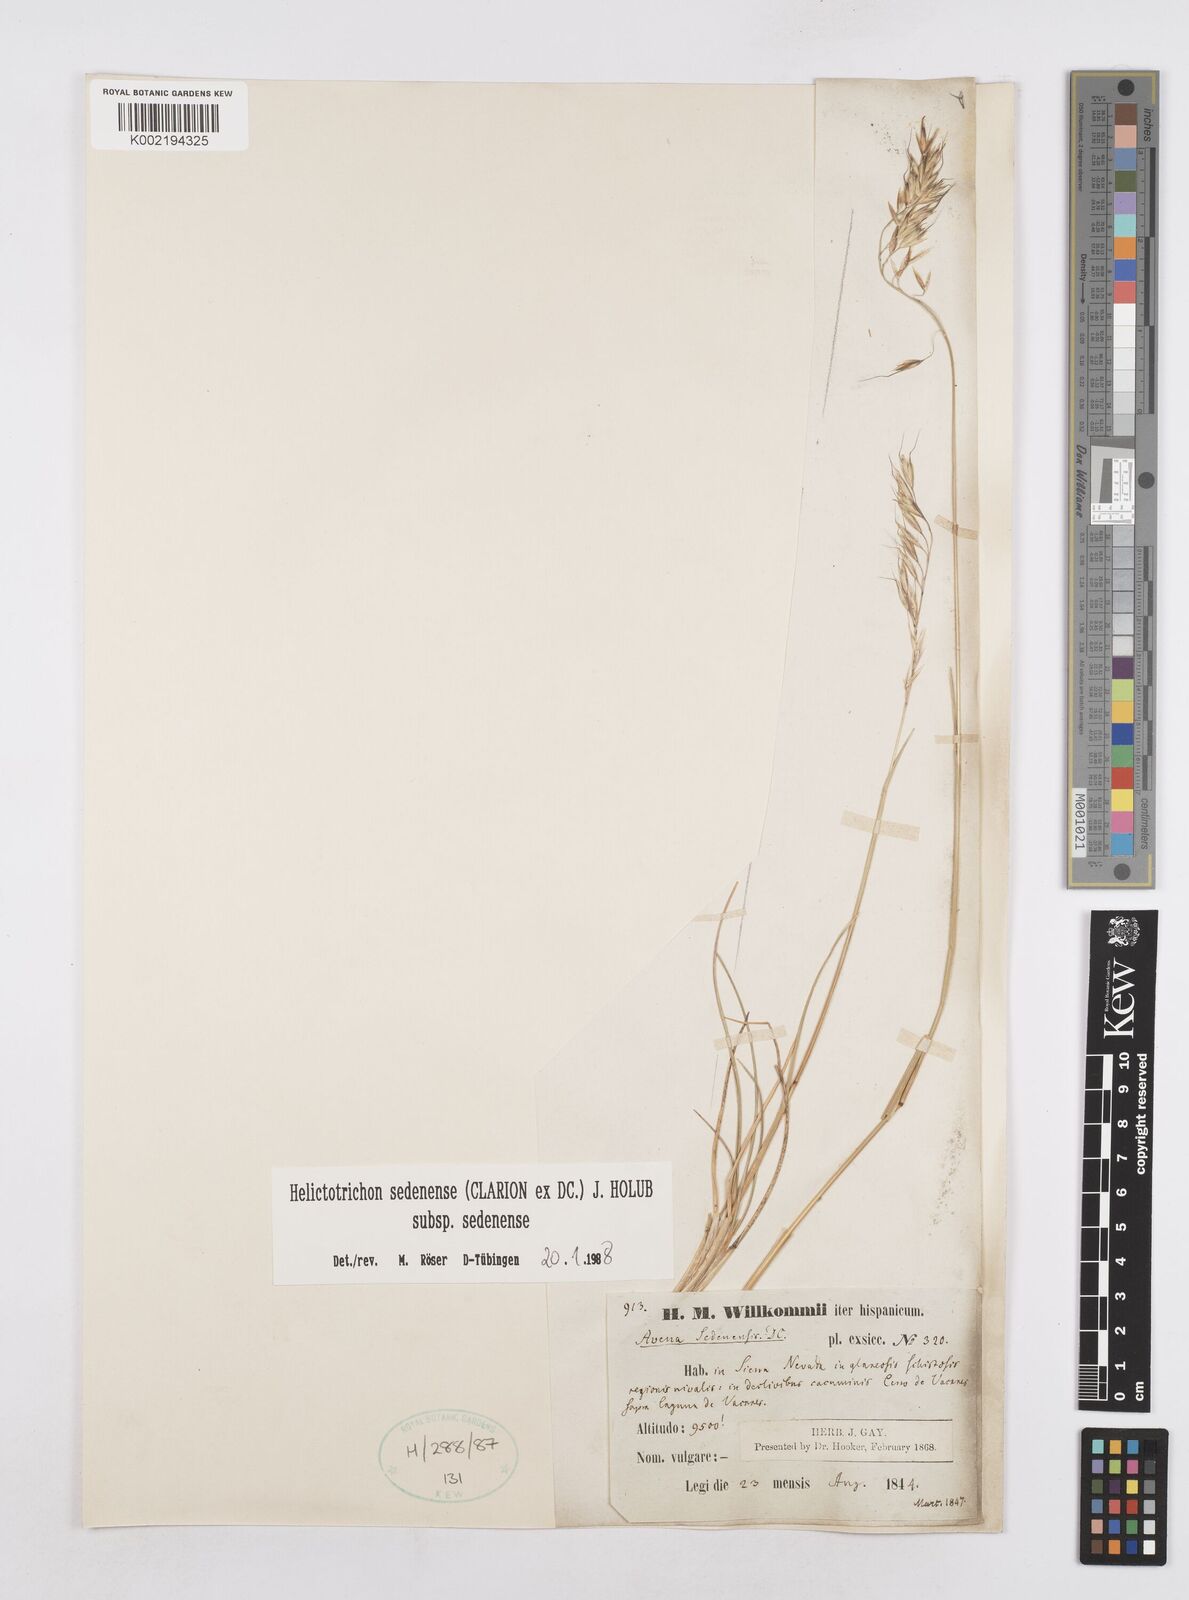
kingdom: Plantae
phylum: Tracheophyta
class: Liliopsida
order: Poales
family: Poaceae
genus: Helictotrichon
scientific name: Helictotrichon sedenense
